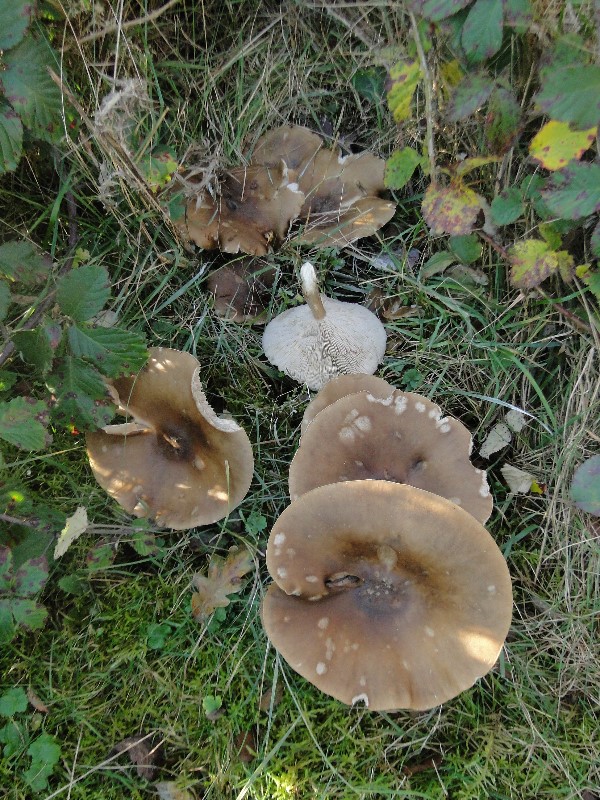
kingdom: Fungi
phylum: Basidiomycota
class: Agaricomycetes
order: Agaricales
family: Tricholomataceae
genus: Melanoleuca
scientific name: Melanoleuca grammopodia
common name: stribestokket munkehat
